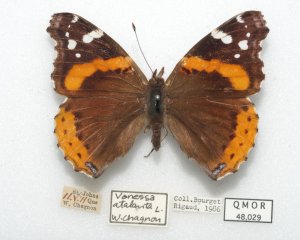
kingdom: Animalia
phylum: Arthropoda
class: Insecta
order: Lepidoptera
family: Nymphalidae
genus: Vanessa
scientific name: Vanessa atalanta
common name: Red Admiral
